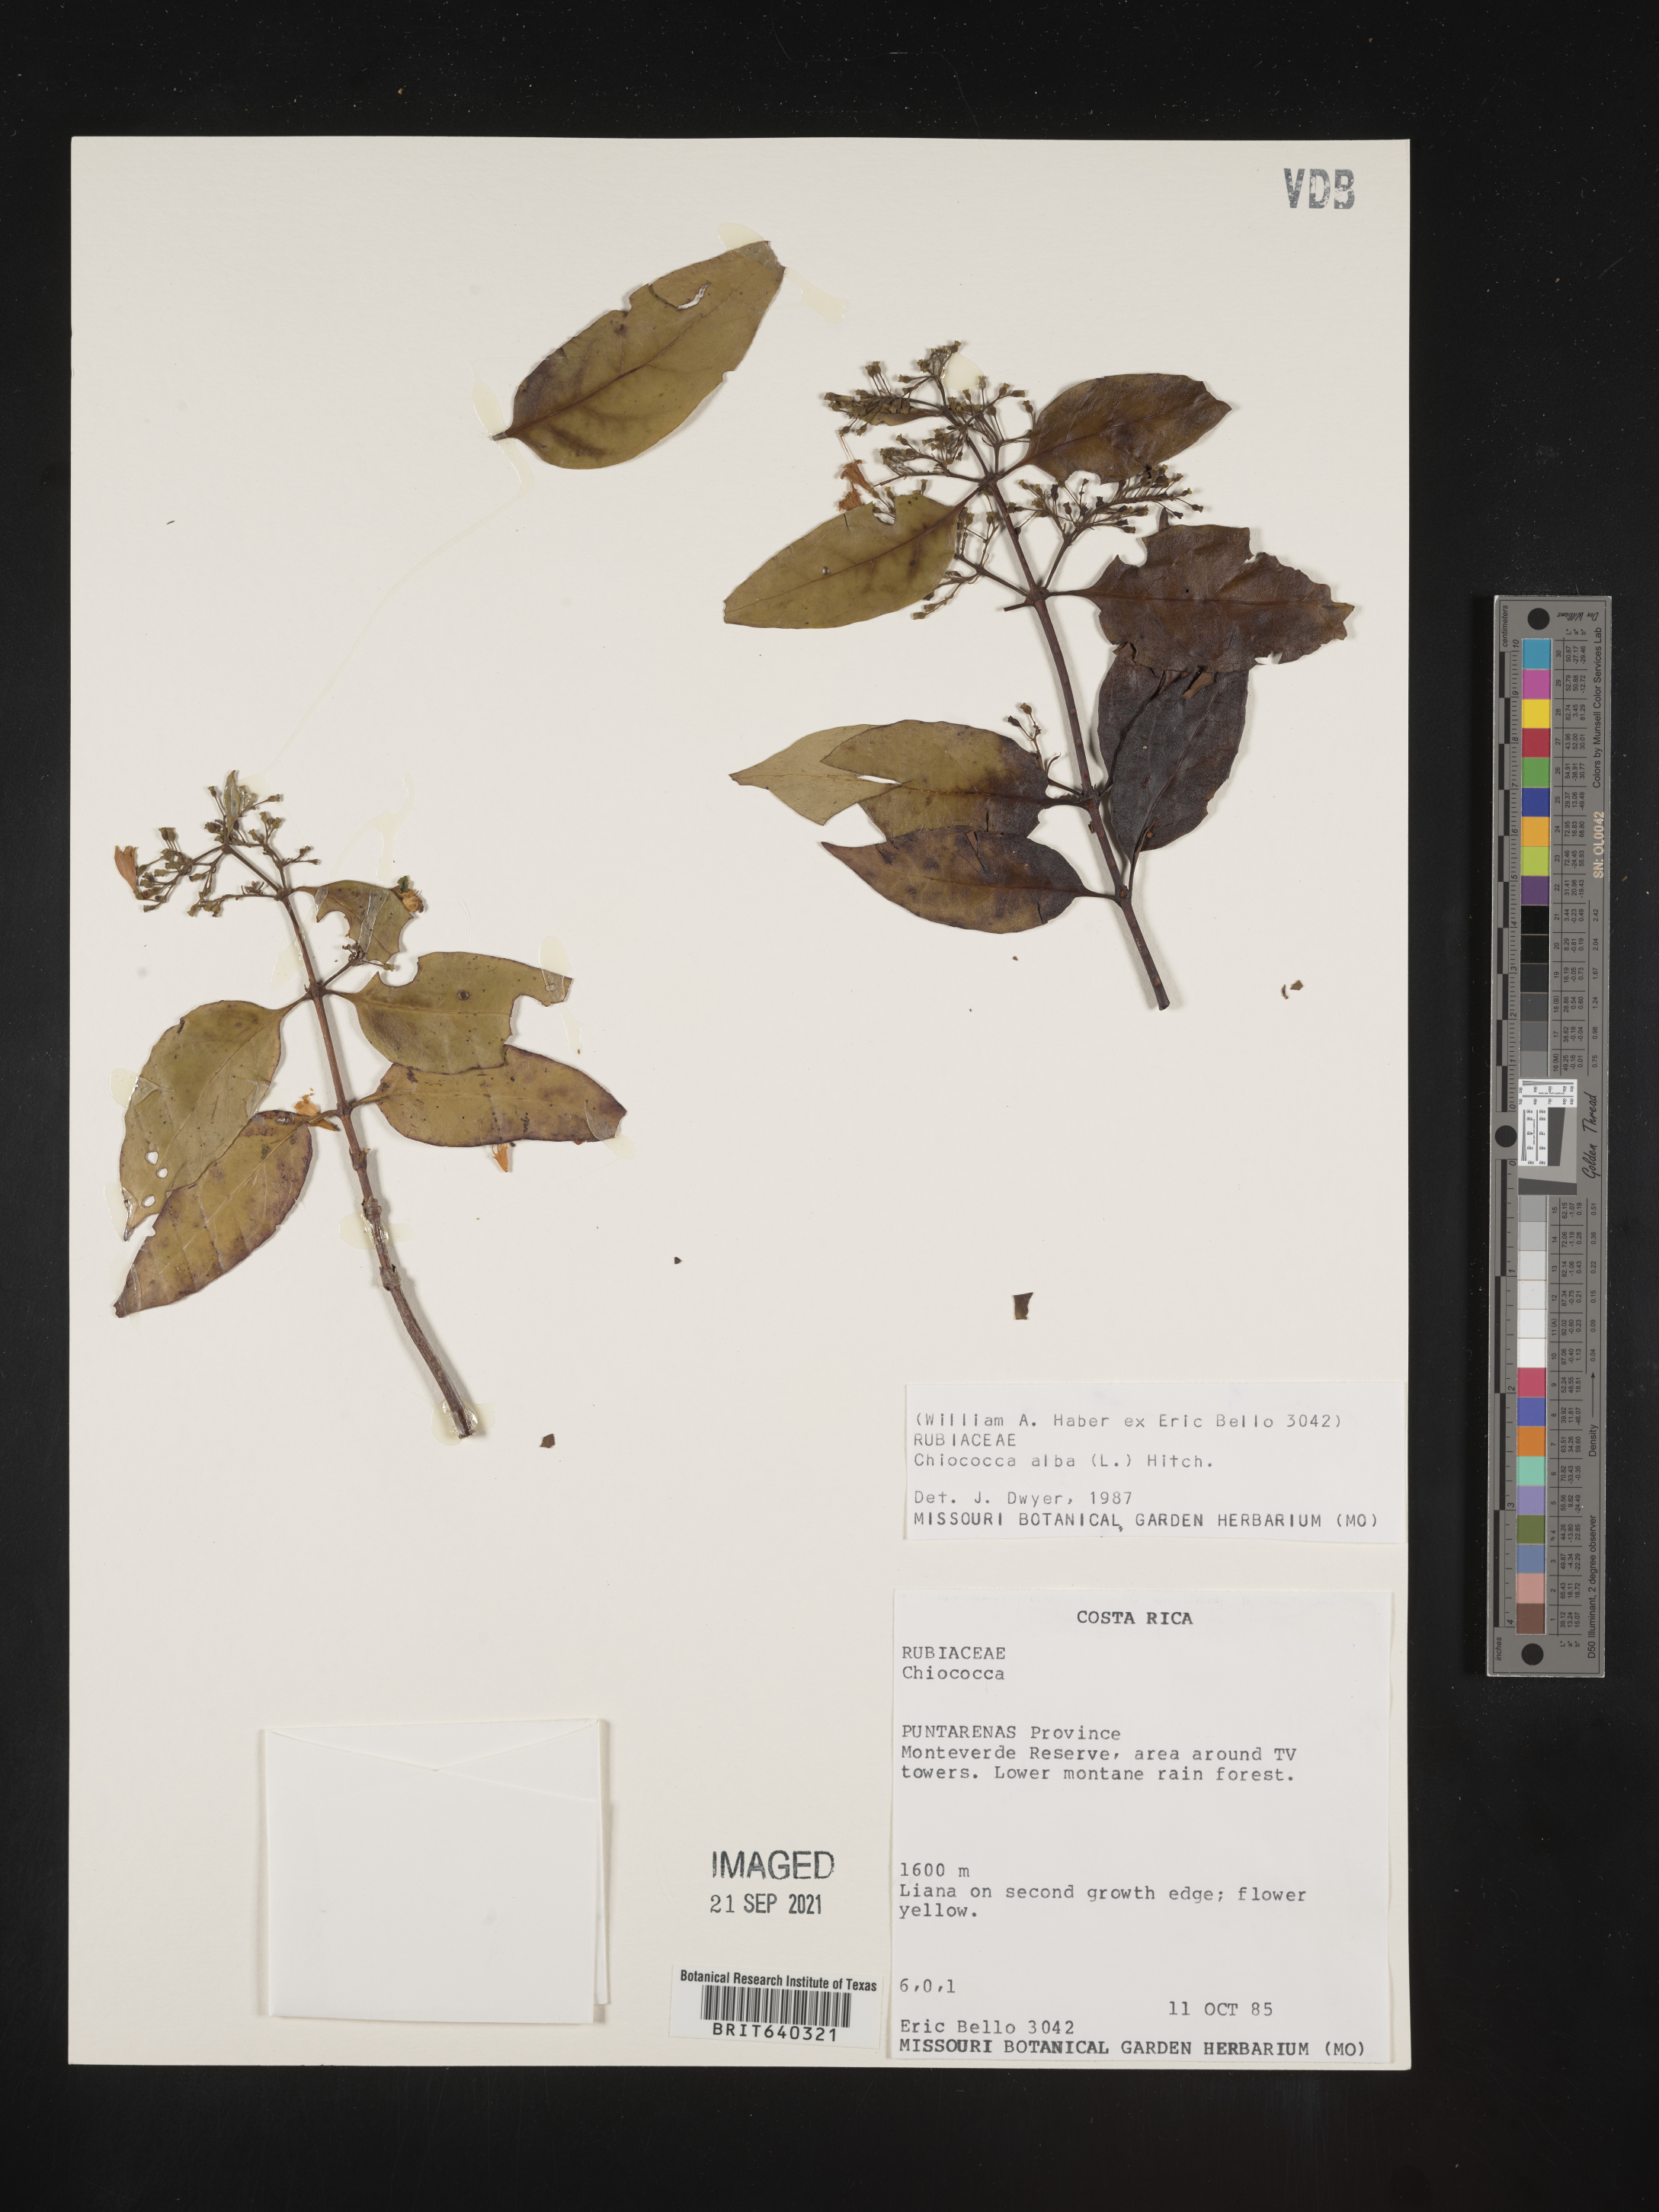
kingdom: Plantae
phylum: Tracheophyta
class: Magnoliopsida
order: Gentianales
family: Rubiaceae
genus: Chiococca
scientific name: Chiococca
